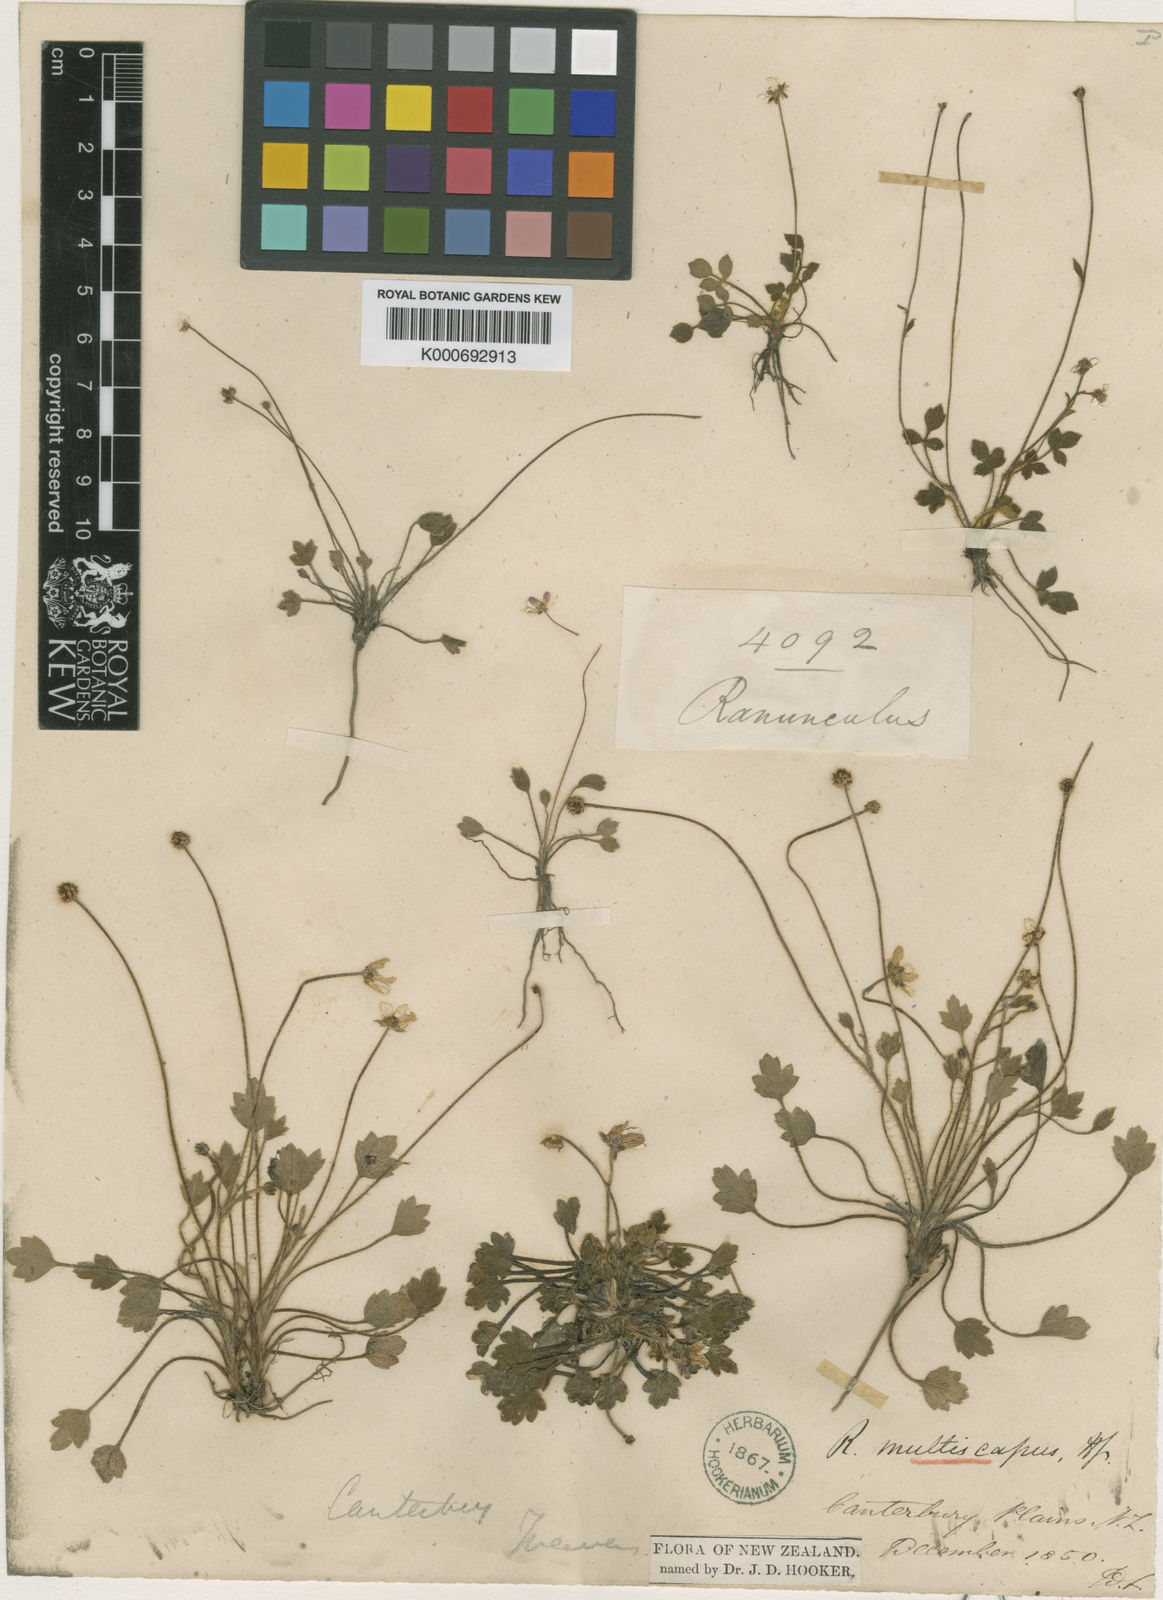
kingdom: Plantae
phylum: Tracheophyta
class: Magnoliopsida
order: Ranunculales
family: Ranunculaceae
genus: Ranunculus
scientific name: Ranunculus lappaceus
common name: Australian buttercup
